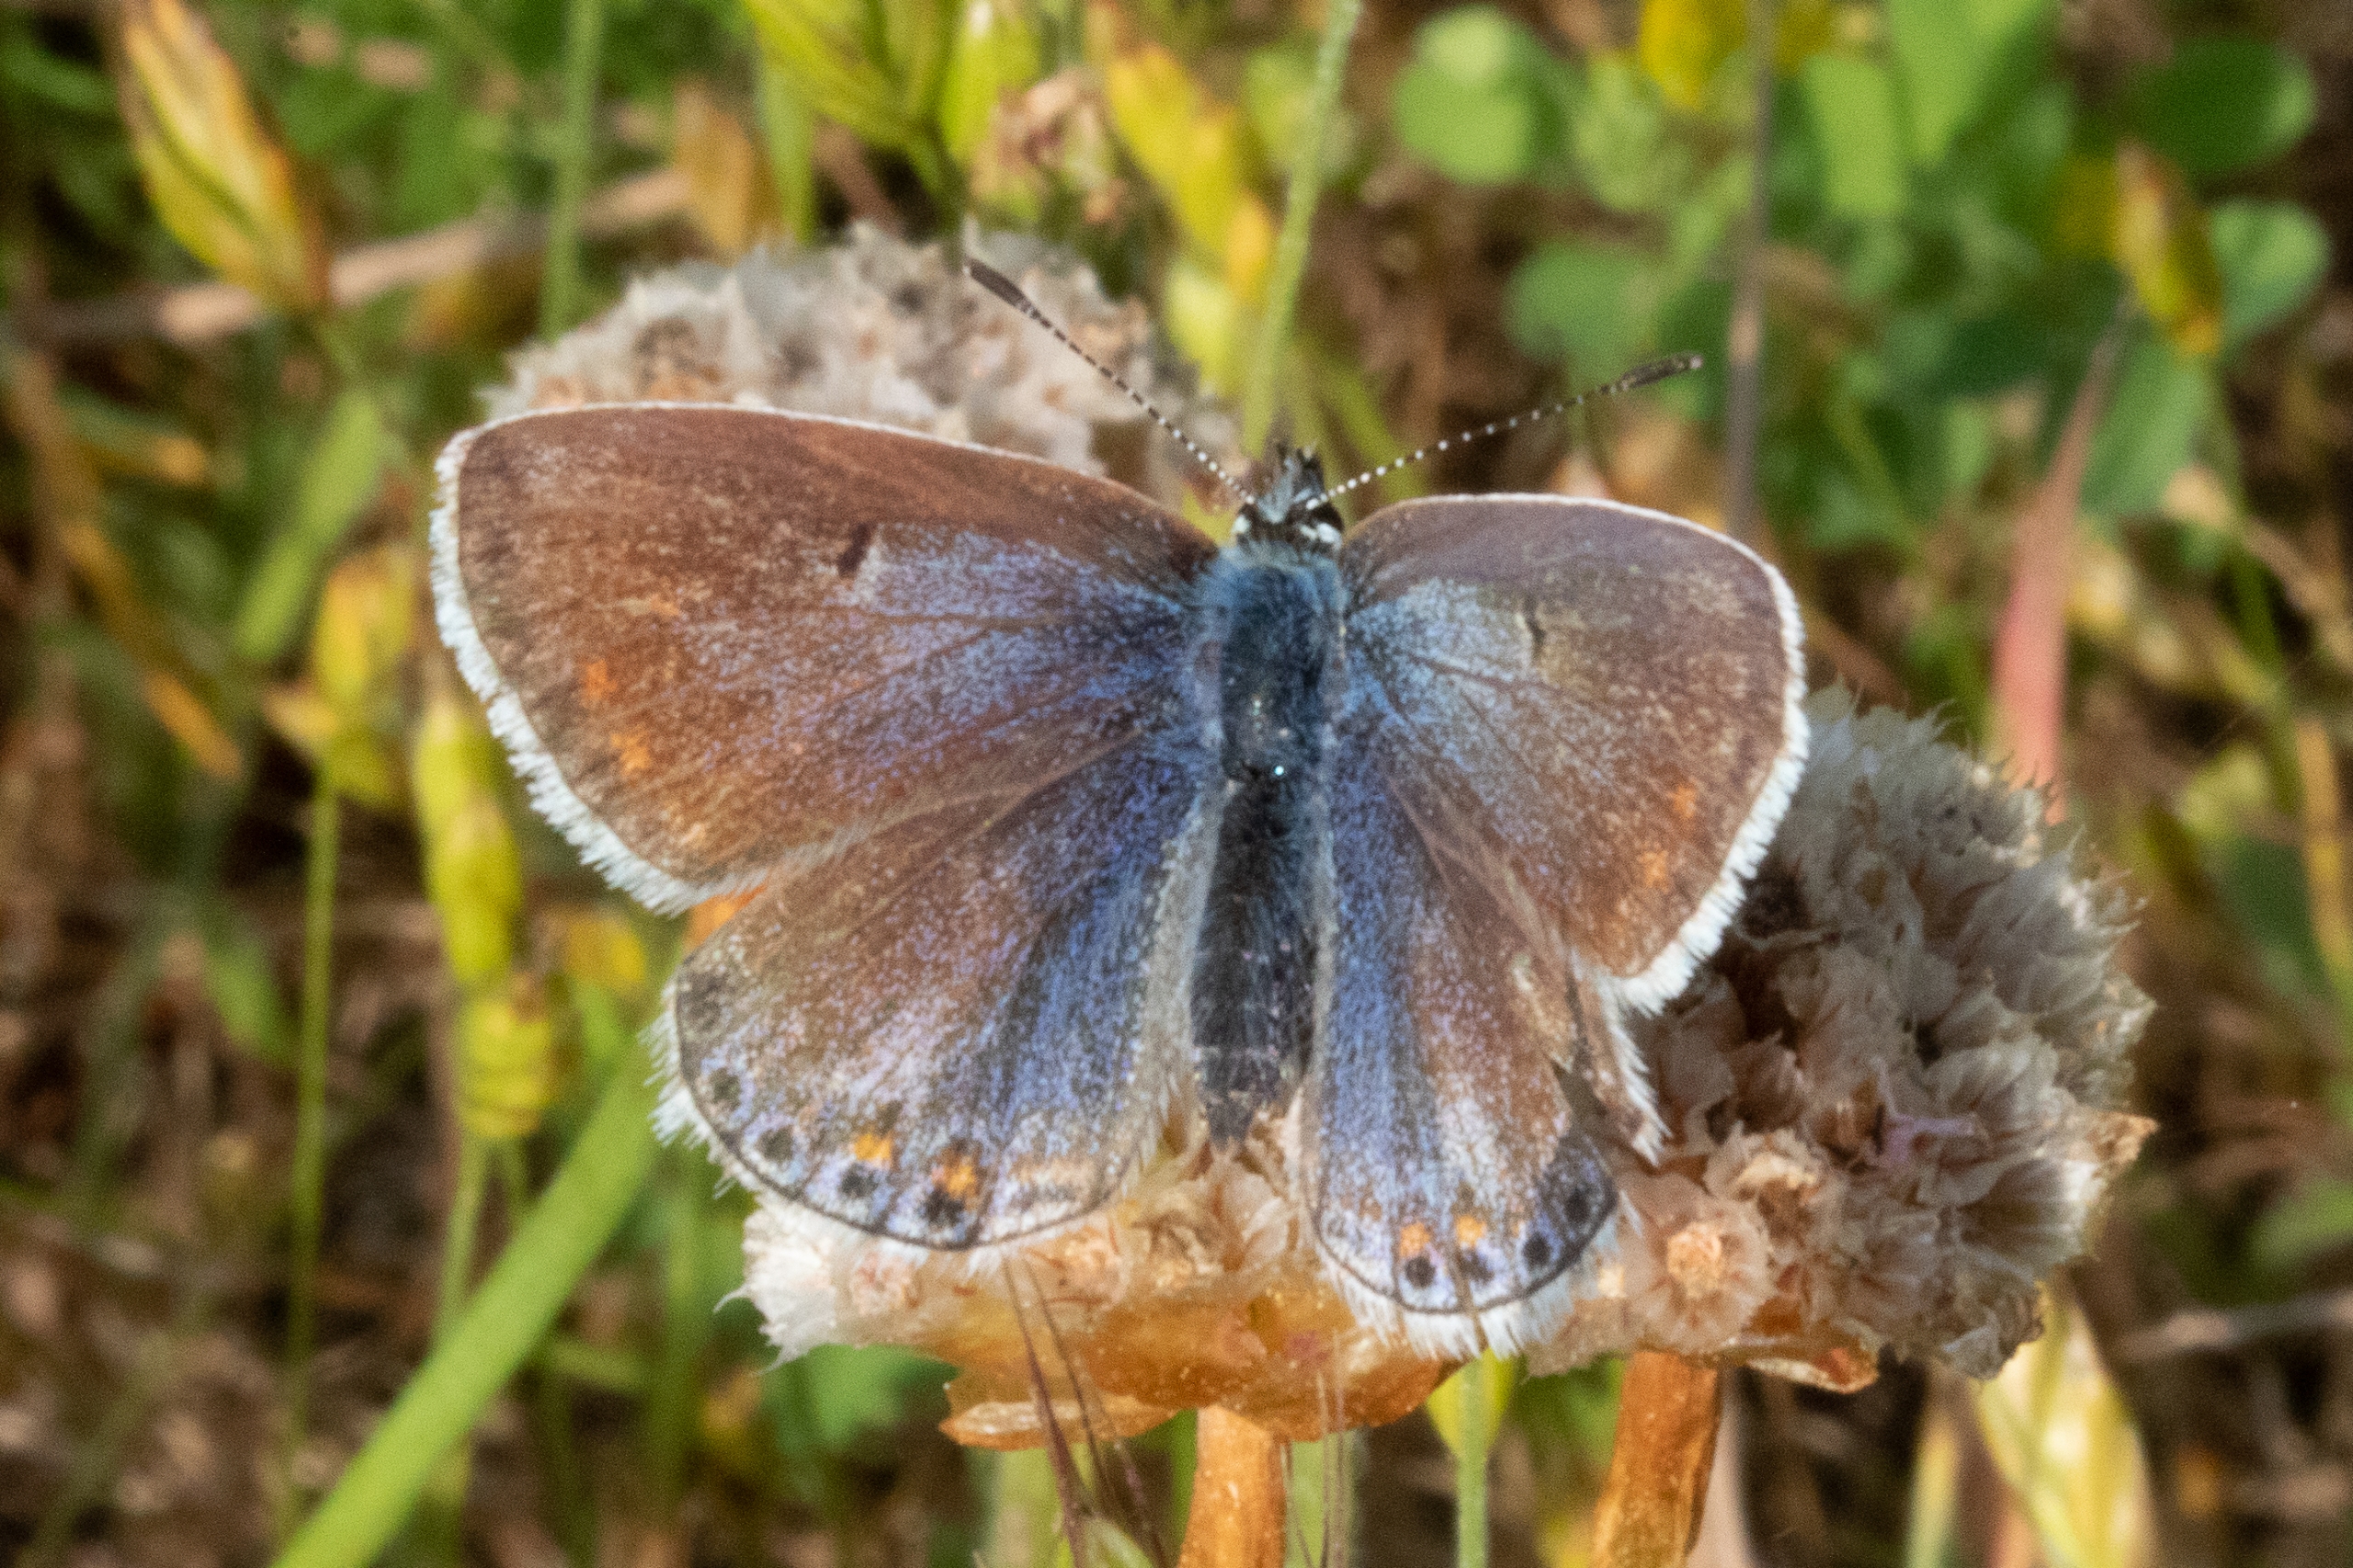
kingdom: Animalia
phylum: Arthropoda
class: Insecta
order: Lepidoptera
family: Lycaenidae
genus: Polyommatus
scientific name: Polyommatus icarus
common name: Almindelig blåfugl
